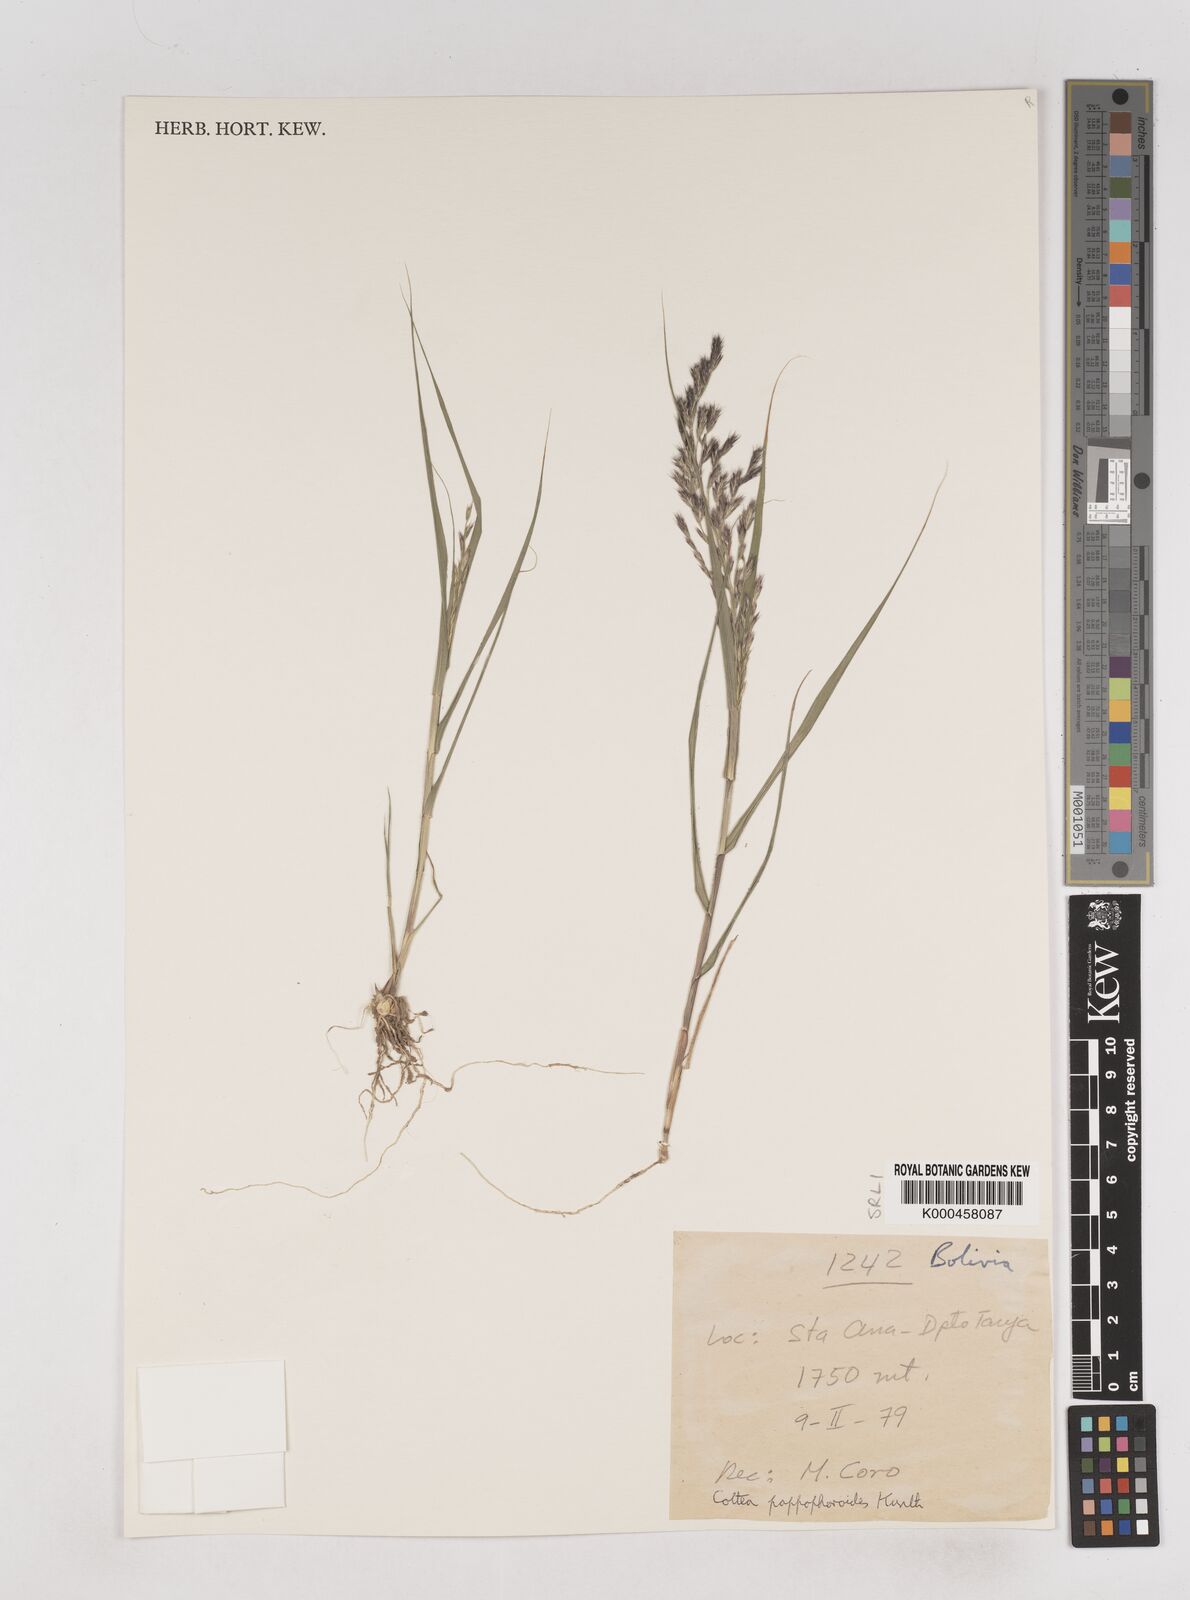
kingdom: Plantae
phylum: Tracheophyta
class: Liliopsida
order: Poales
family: Poaceae
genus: Cottea
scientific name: Cottea
